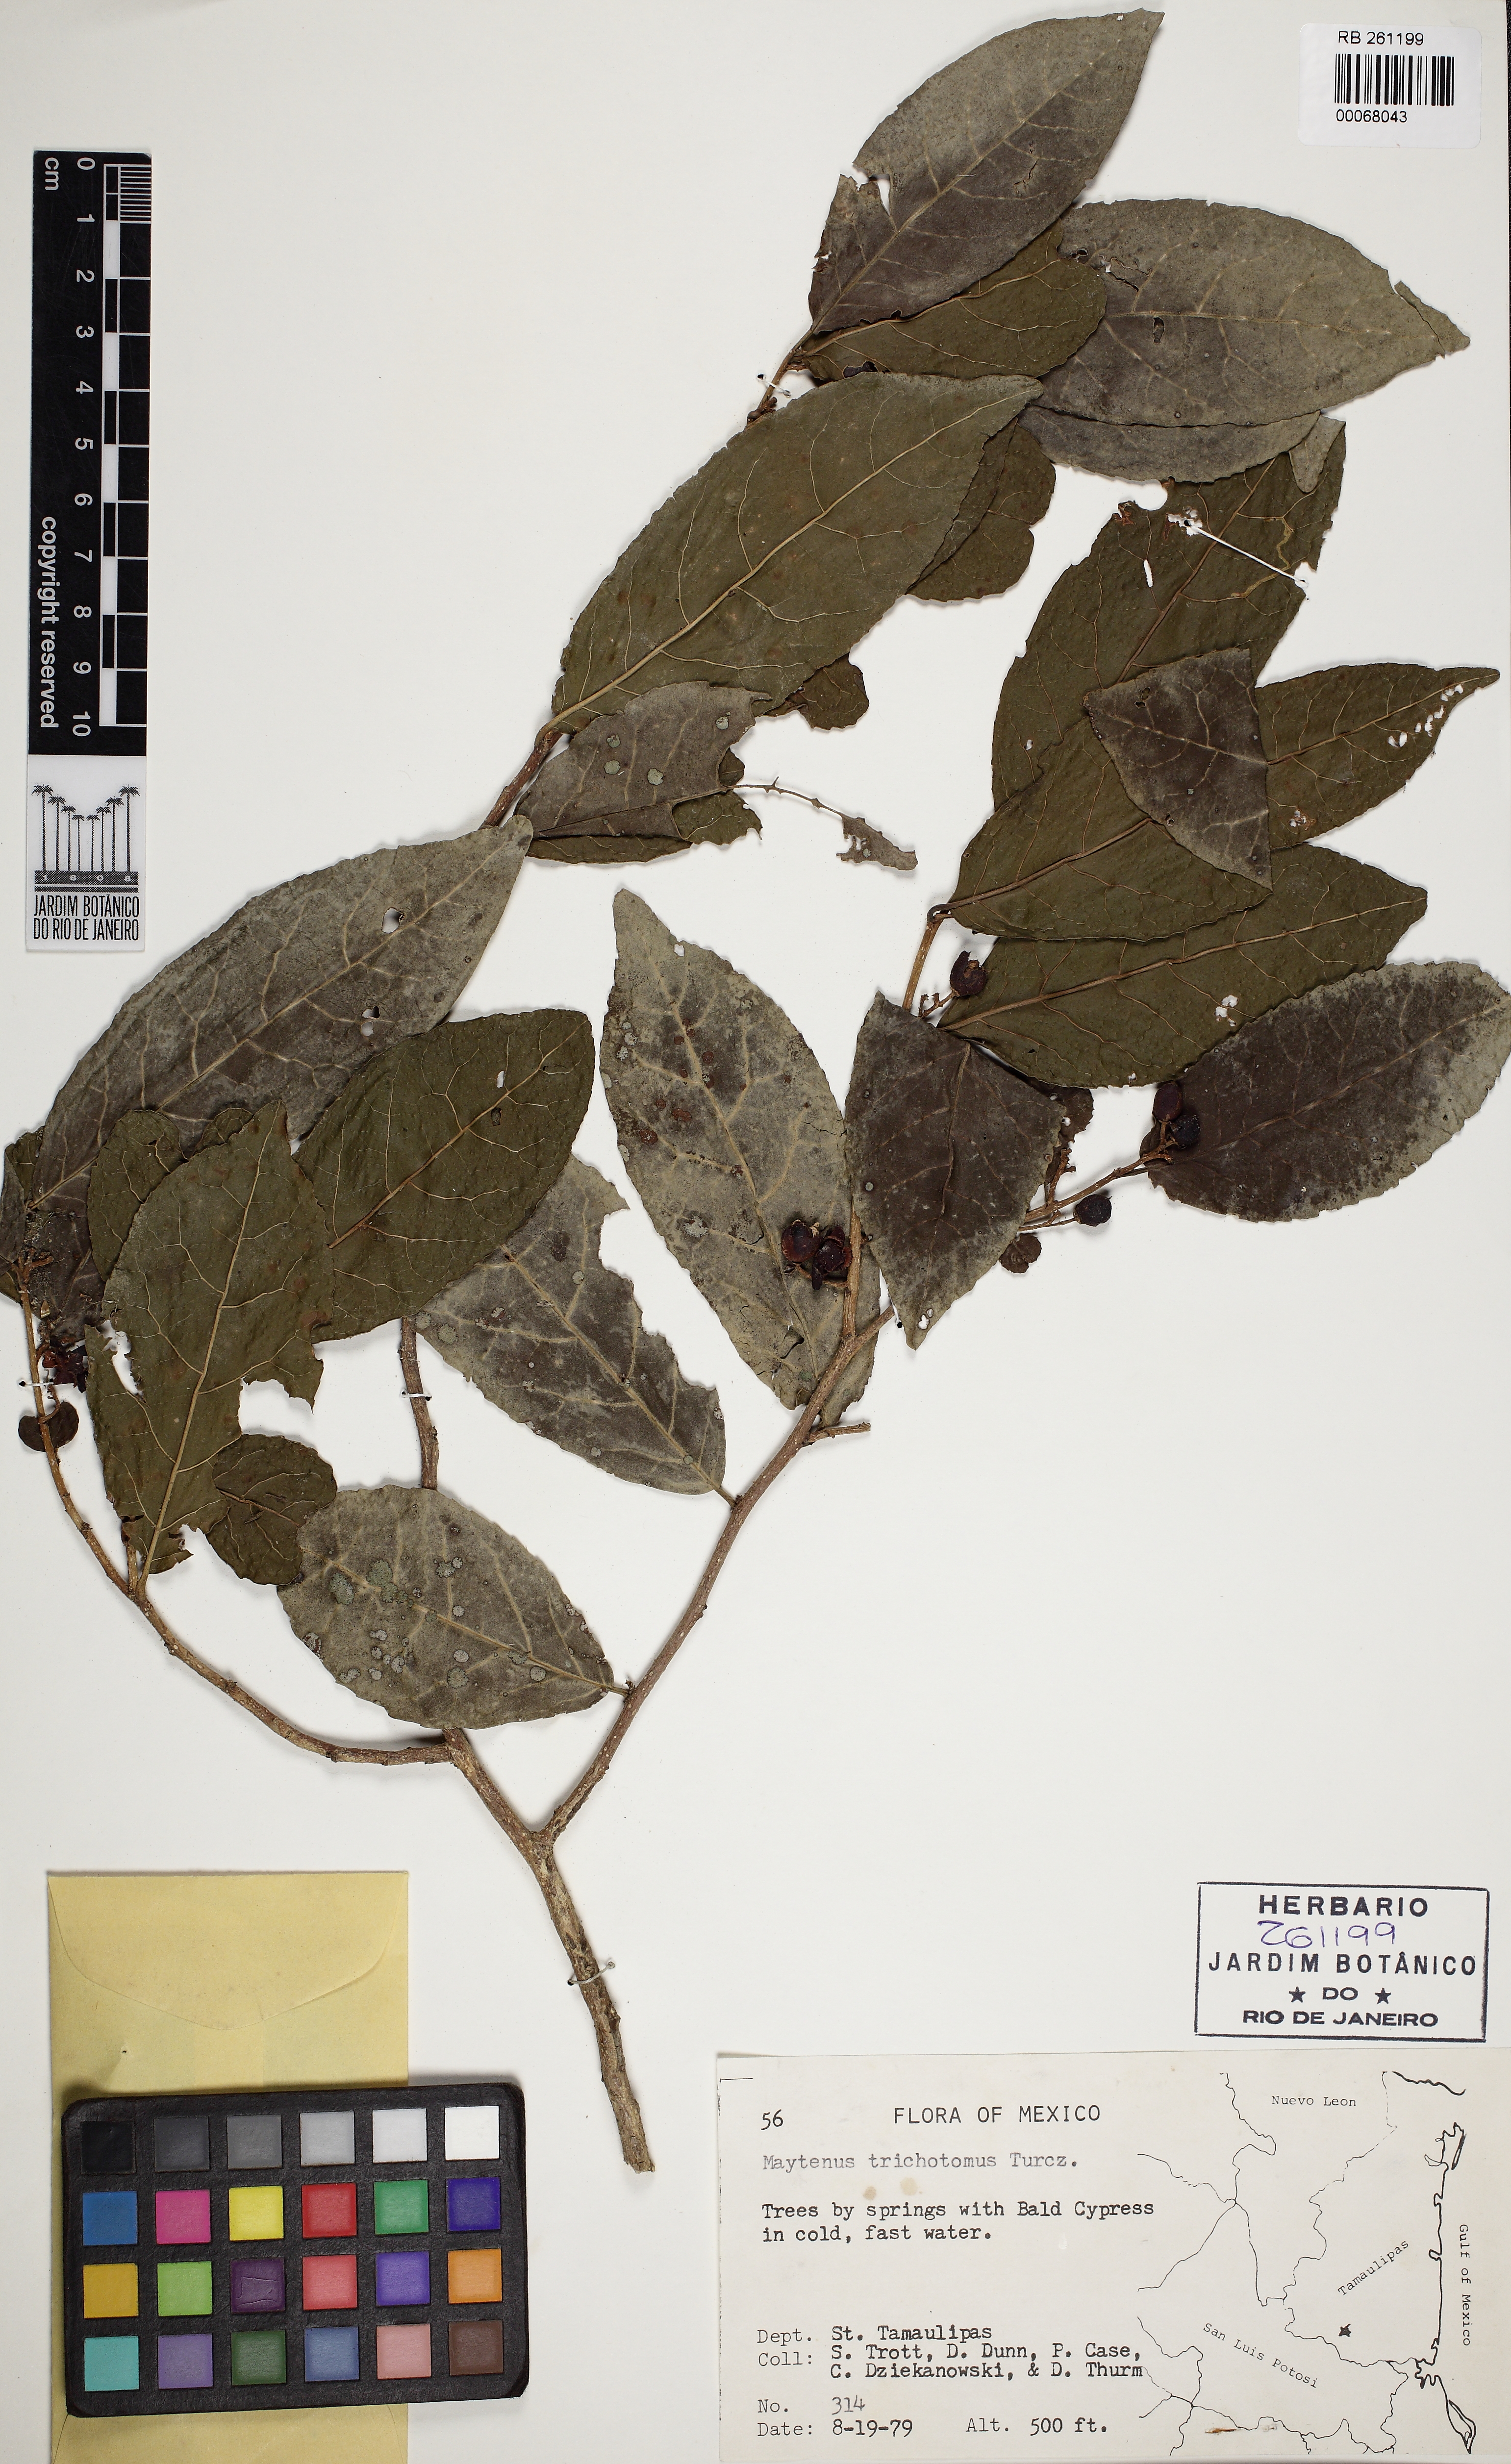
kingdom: Plantae
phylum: Tracheophyta
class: Magnoliopsida
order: Celastrales
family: Celastraceae
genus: Celastrus
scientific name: Celastrus
